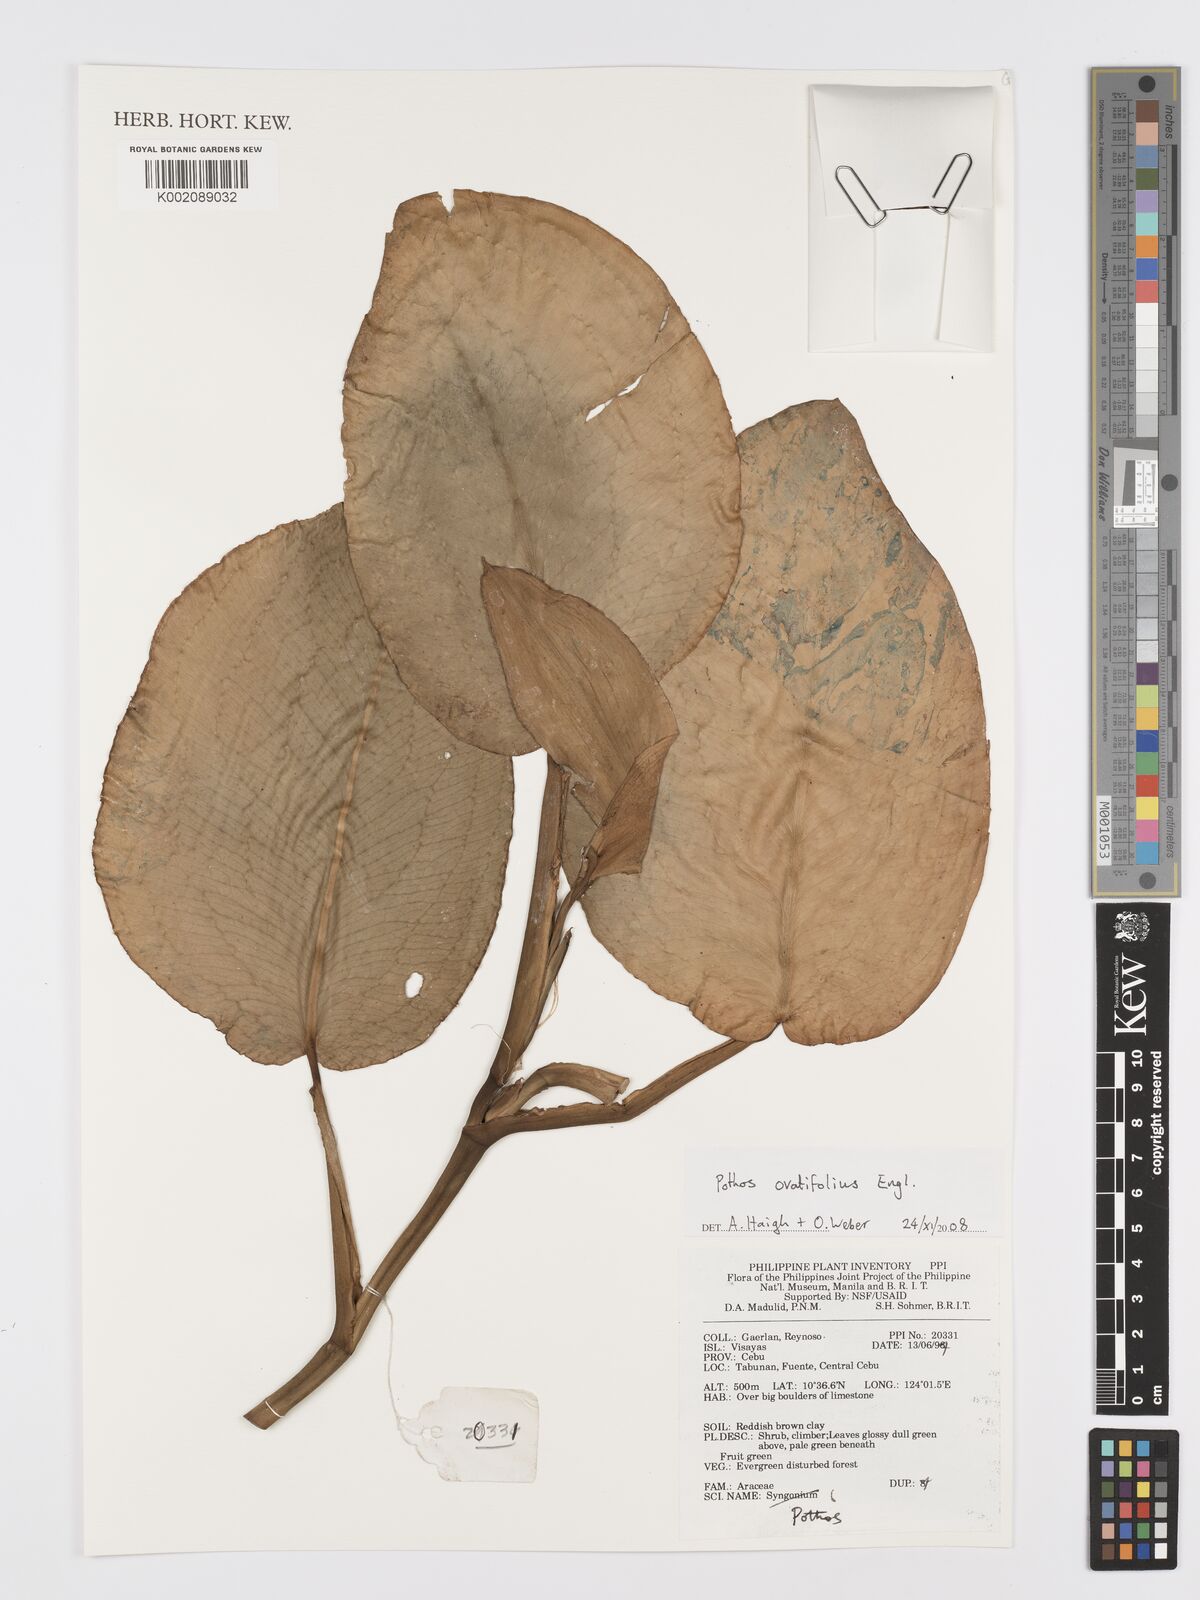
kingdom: Plantae
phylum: Tracheophyta
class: Liliopsida
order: Alismatales
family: Araceae
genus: Pothos
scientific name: Pothos ovatifolius
